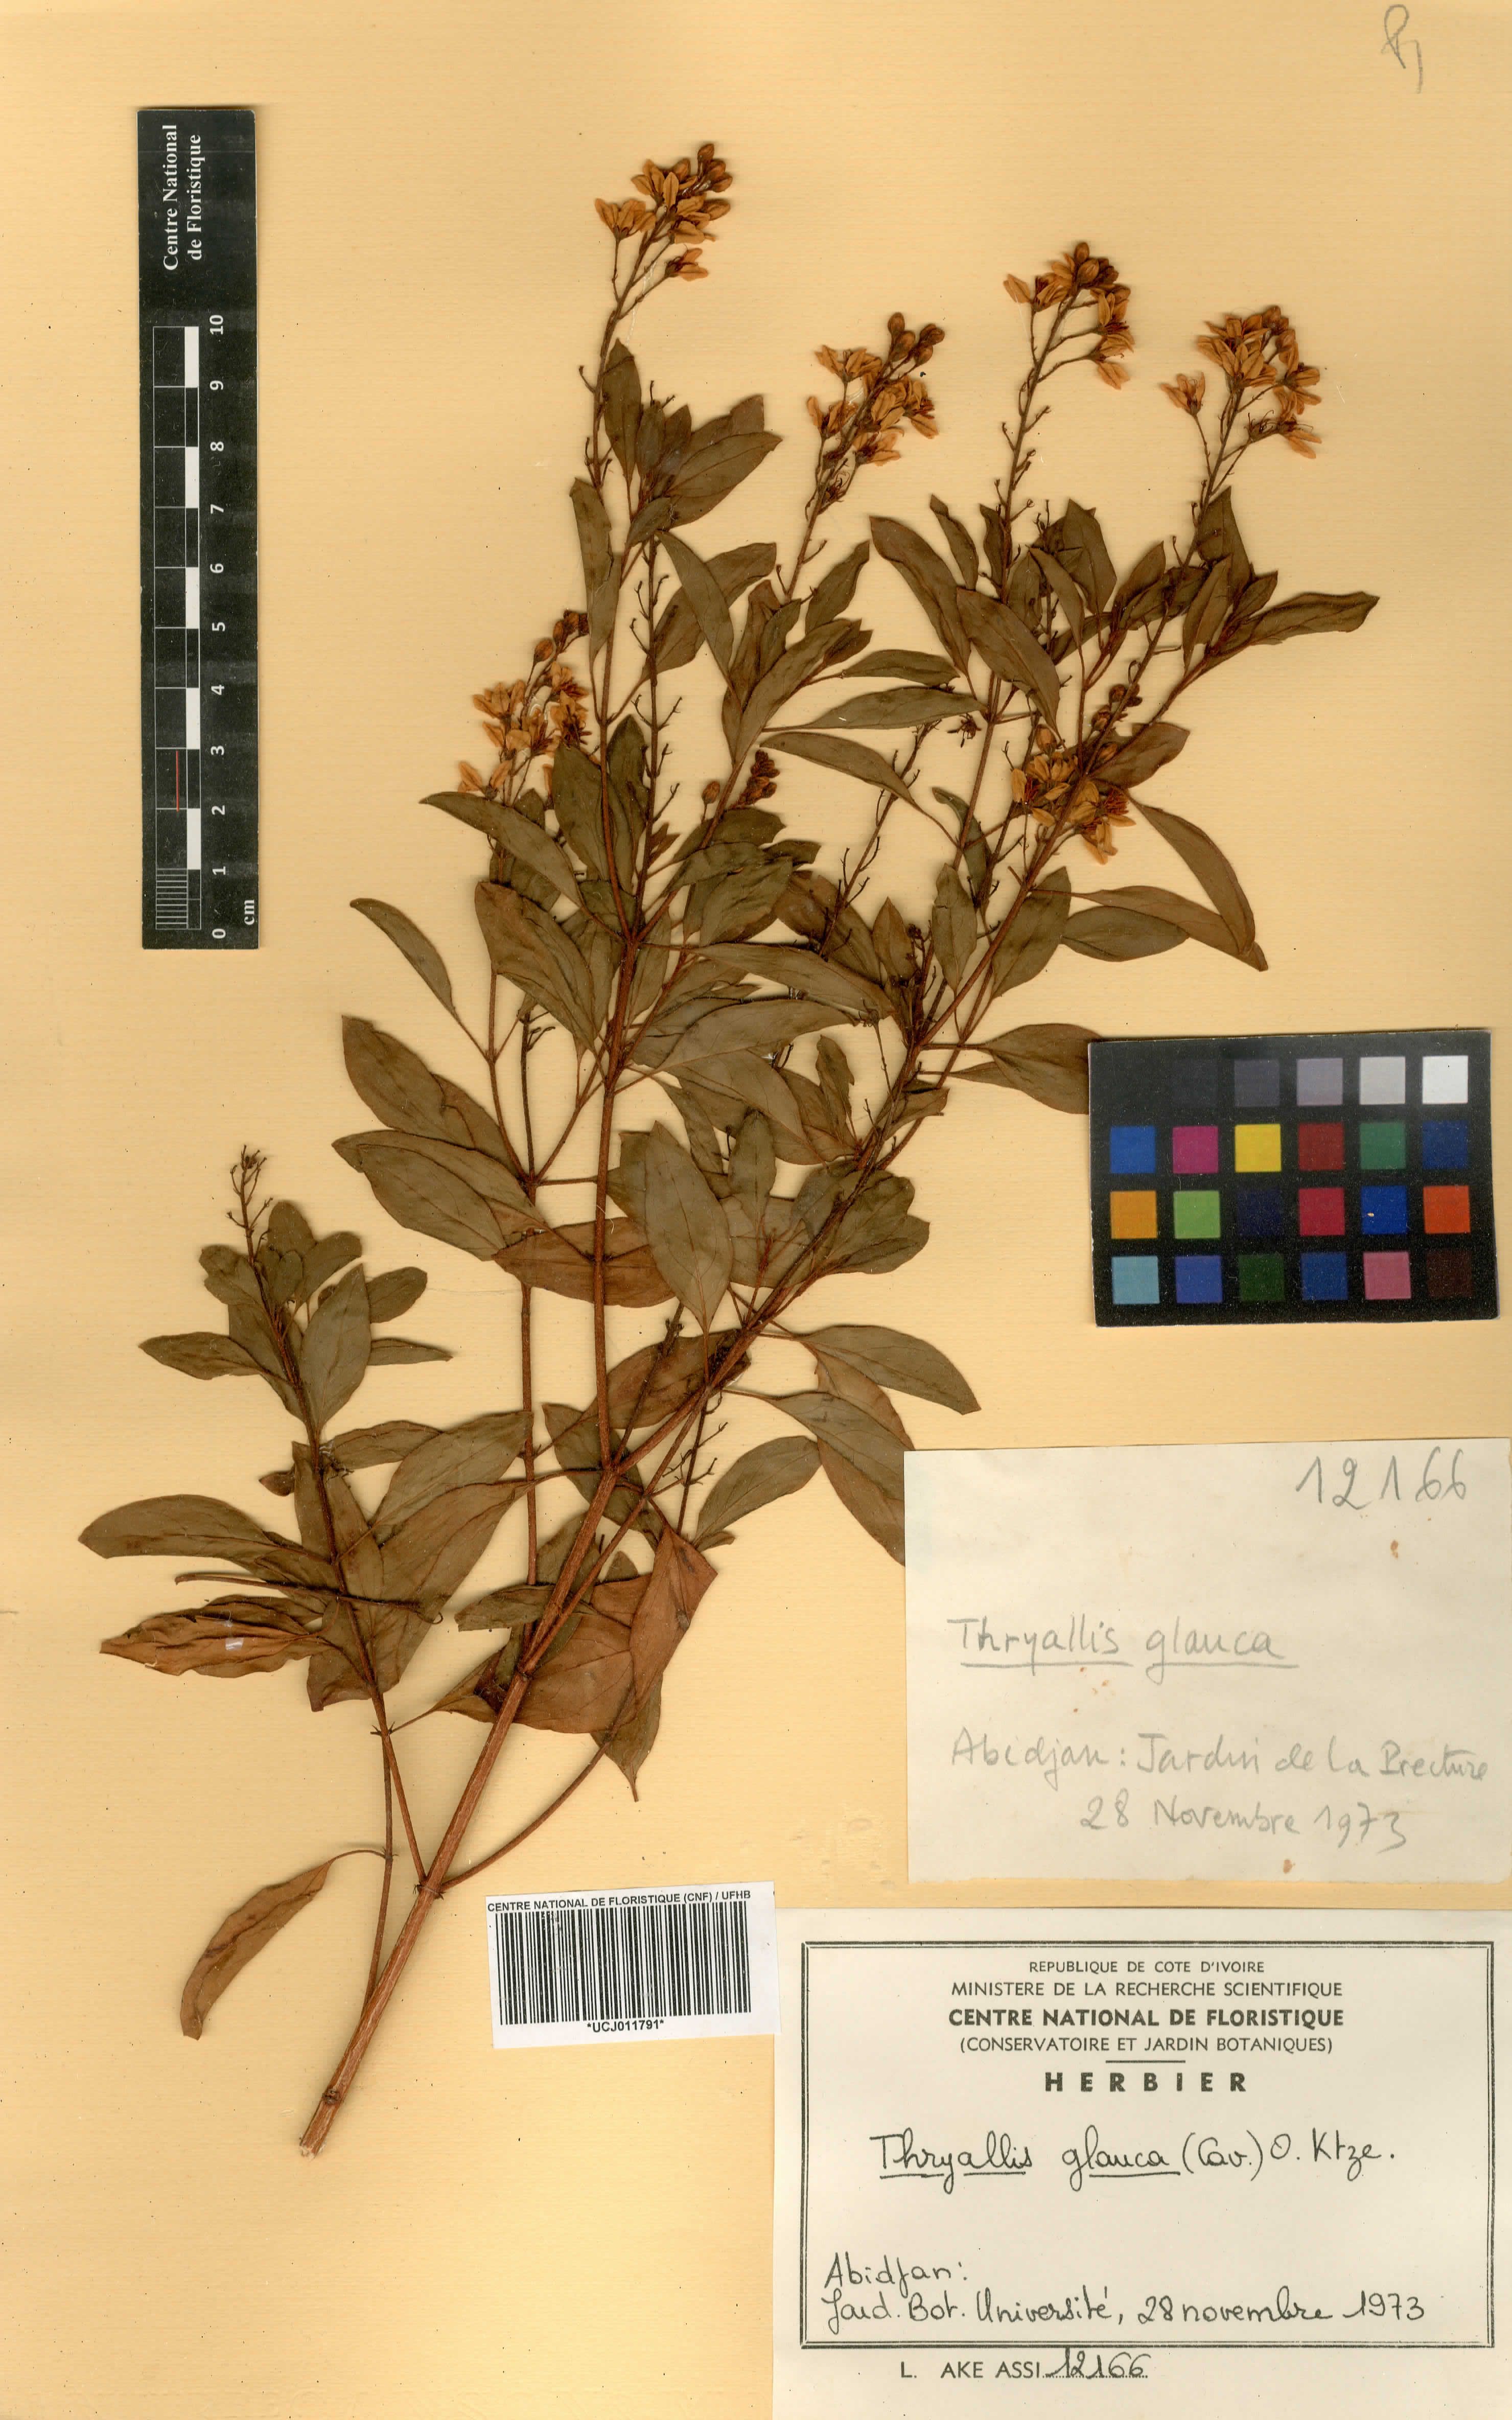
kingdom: Plantae
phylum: Tracheophyta
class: Magnoliopsida
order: Malpighiales
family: Malpighiaceae
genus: Galphimia
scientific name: Galphimia glauca
